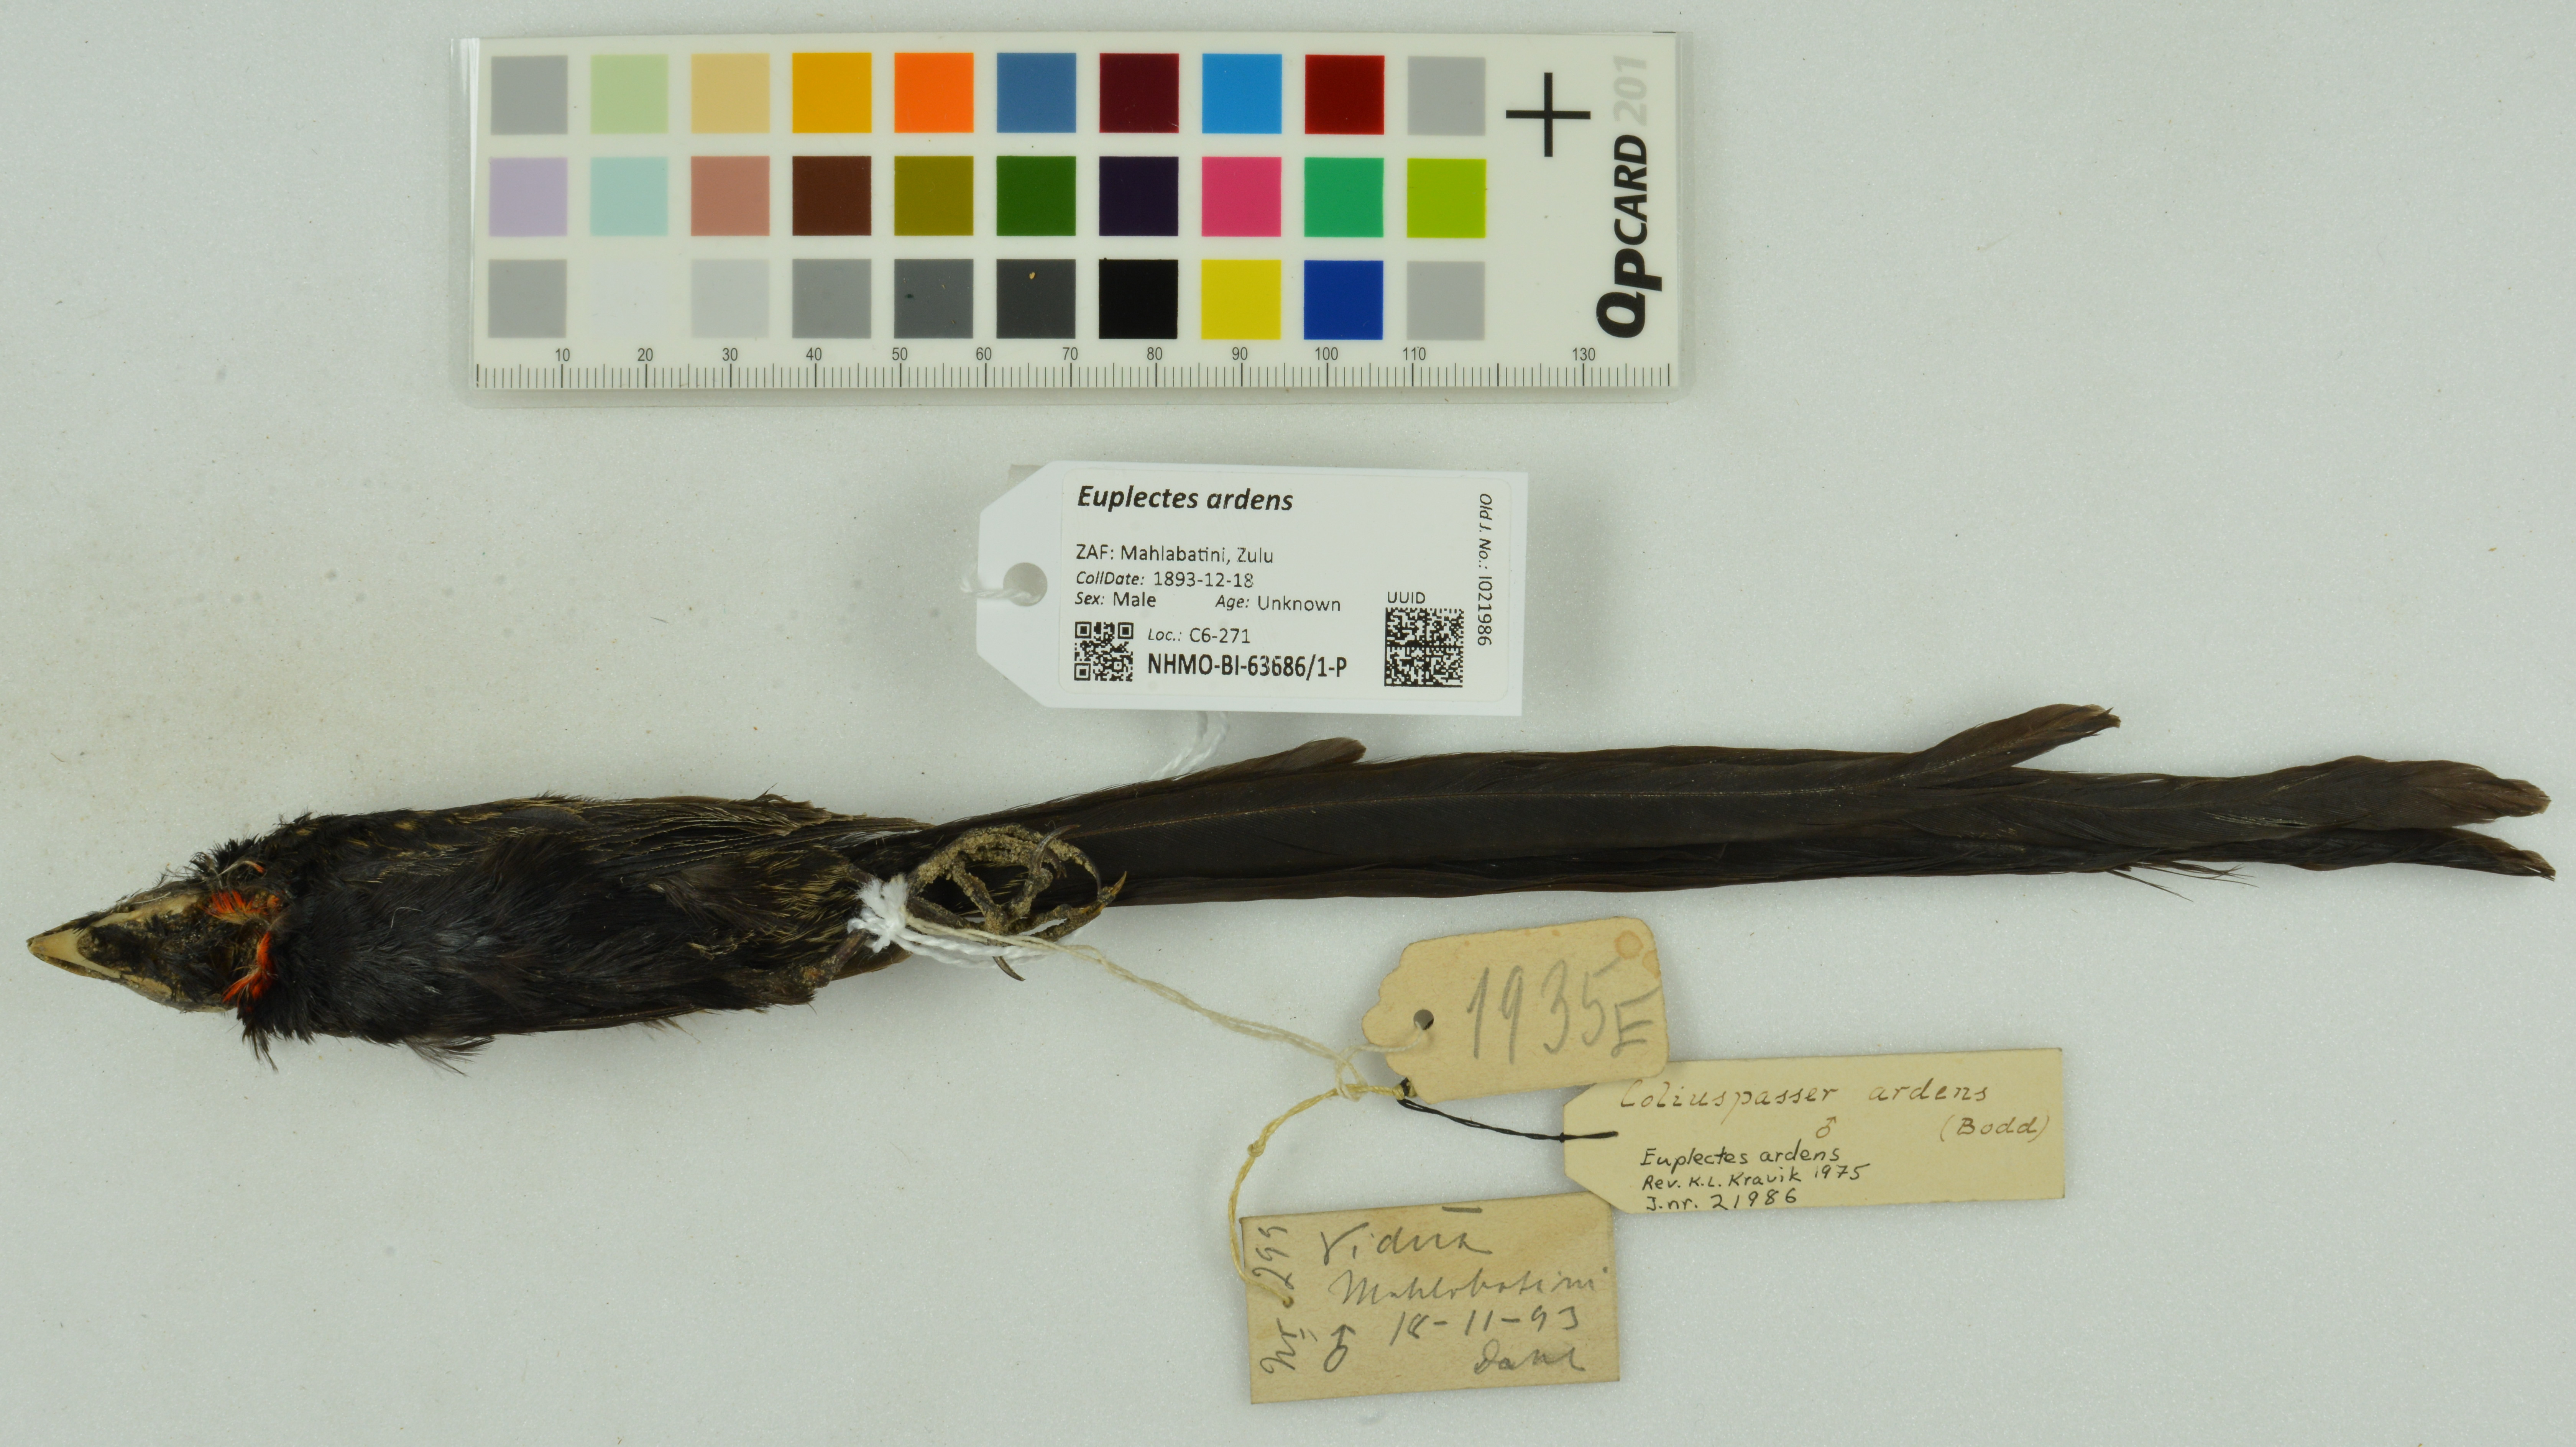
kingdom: Animalia
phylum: Chordata
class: Aves
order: Passeriformes
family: Ploceidae
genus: Euplectes
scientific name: Euplectes ardens
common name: Red-collared widowbird
